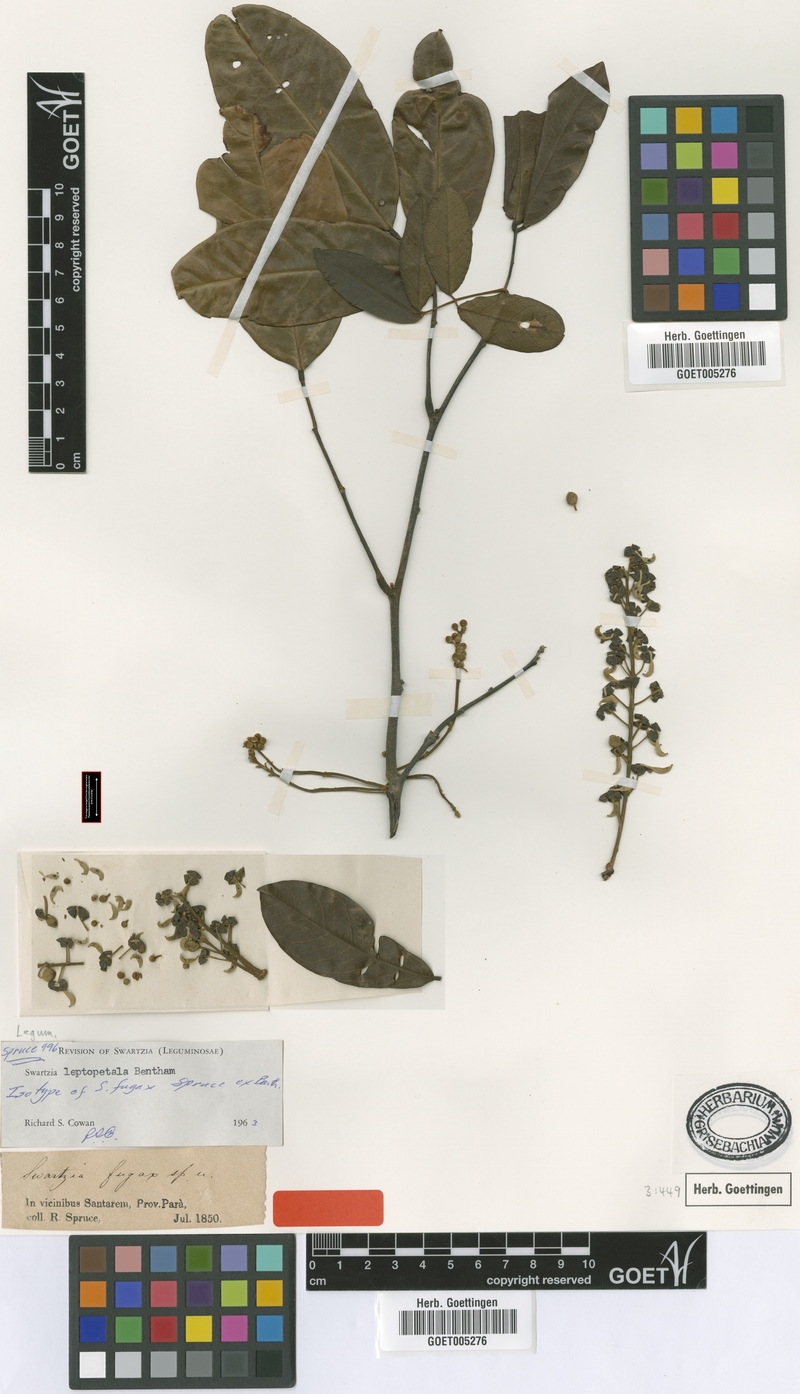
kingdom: Plantae
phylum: Tracheophyta
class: Magnoliopsida
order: Fabales
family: Fabaceae
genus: Swartzia
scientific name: Swartzia leptopetala
